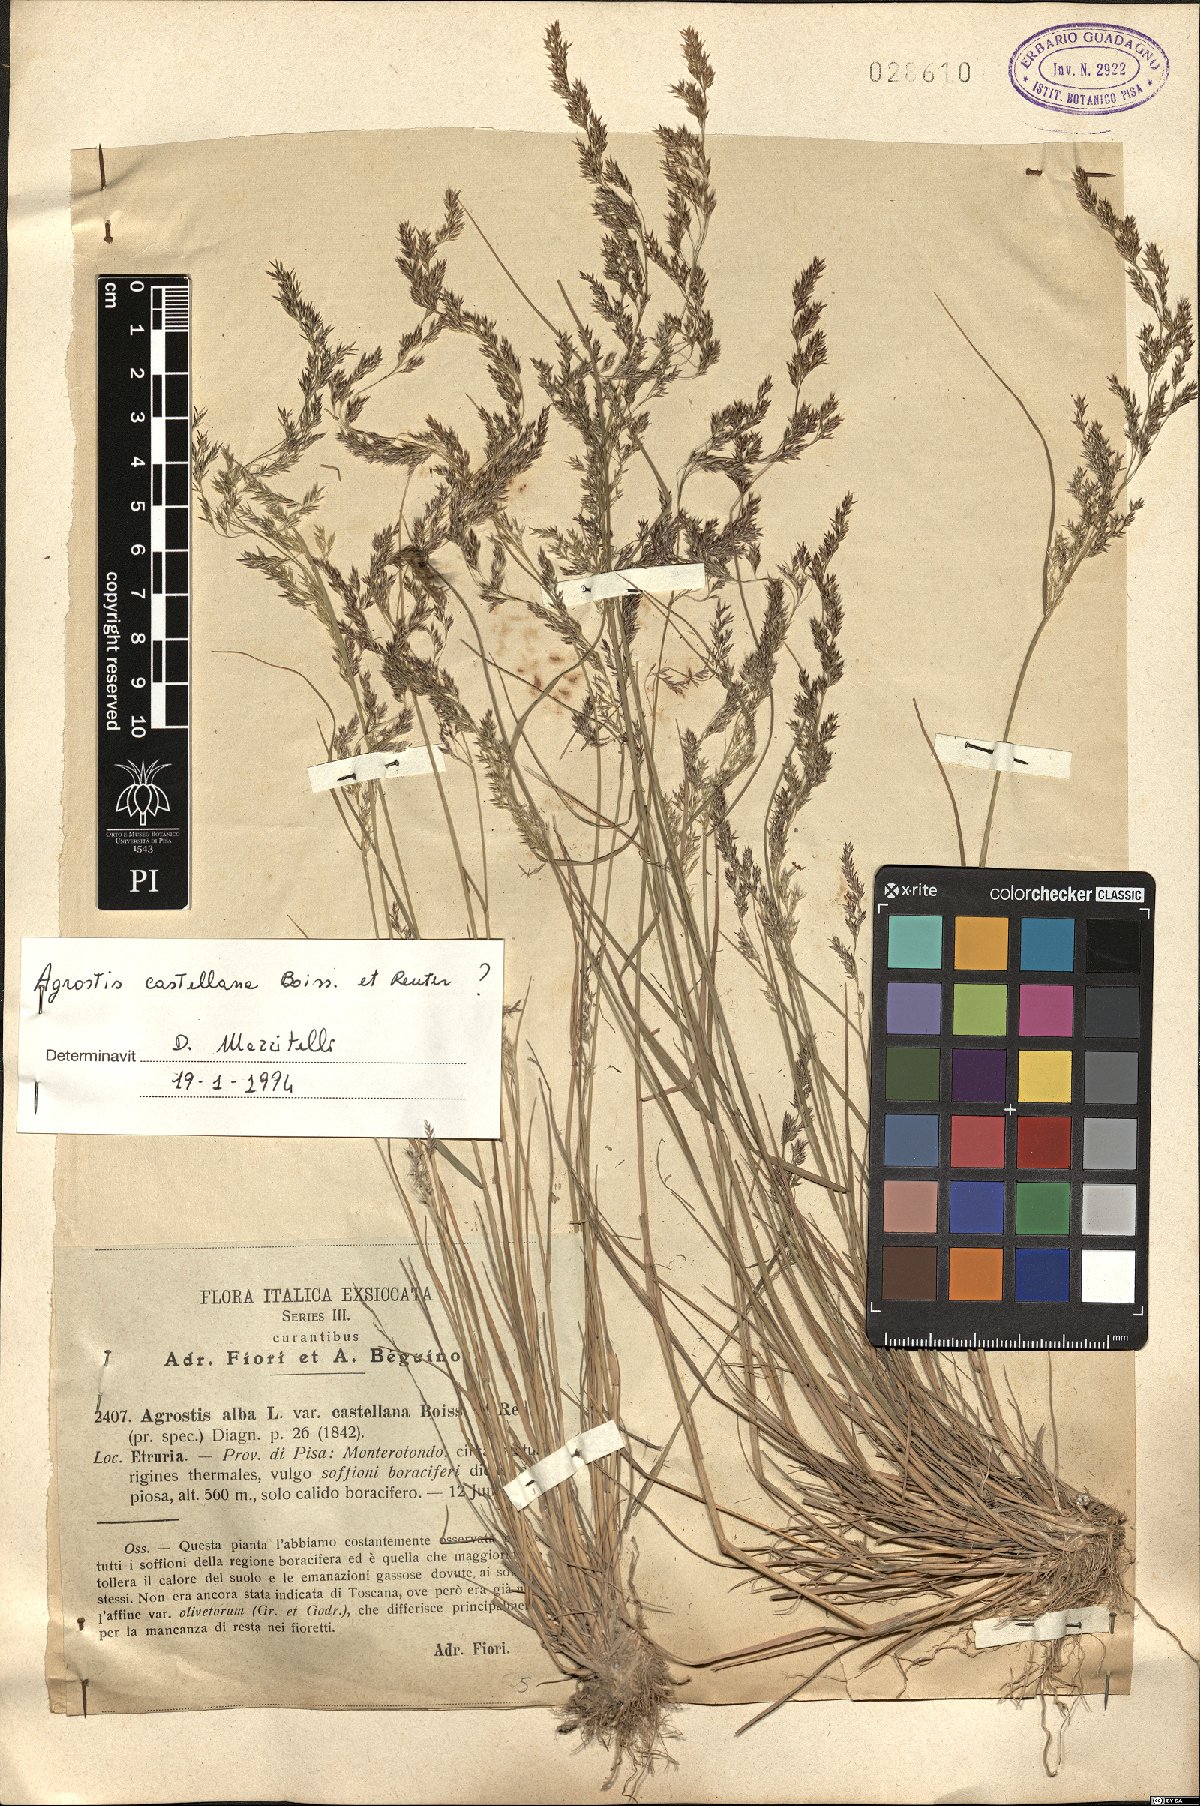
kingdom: Plantae
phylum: Tracheophyta
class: Liliopsida
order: Poales
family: Poaceae
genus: Agrostis
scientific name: Agrostis castellana
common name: Highland bent
